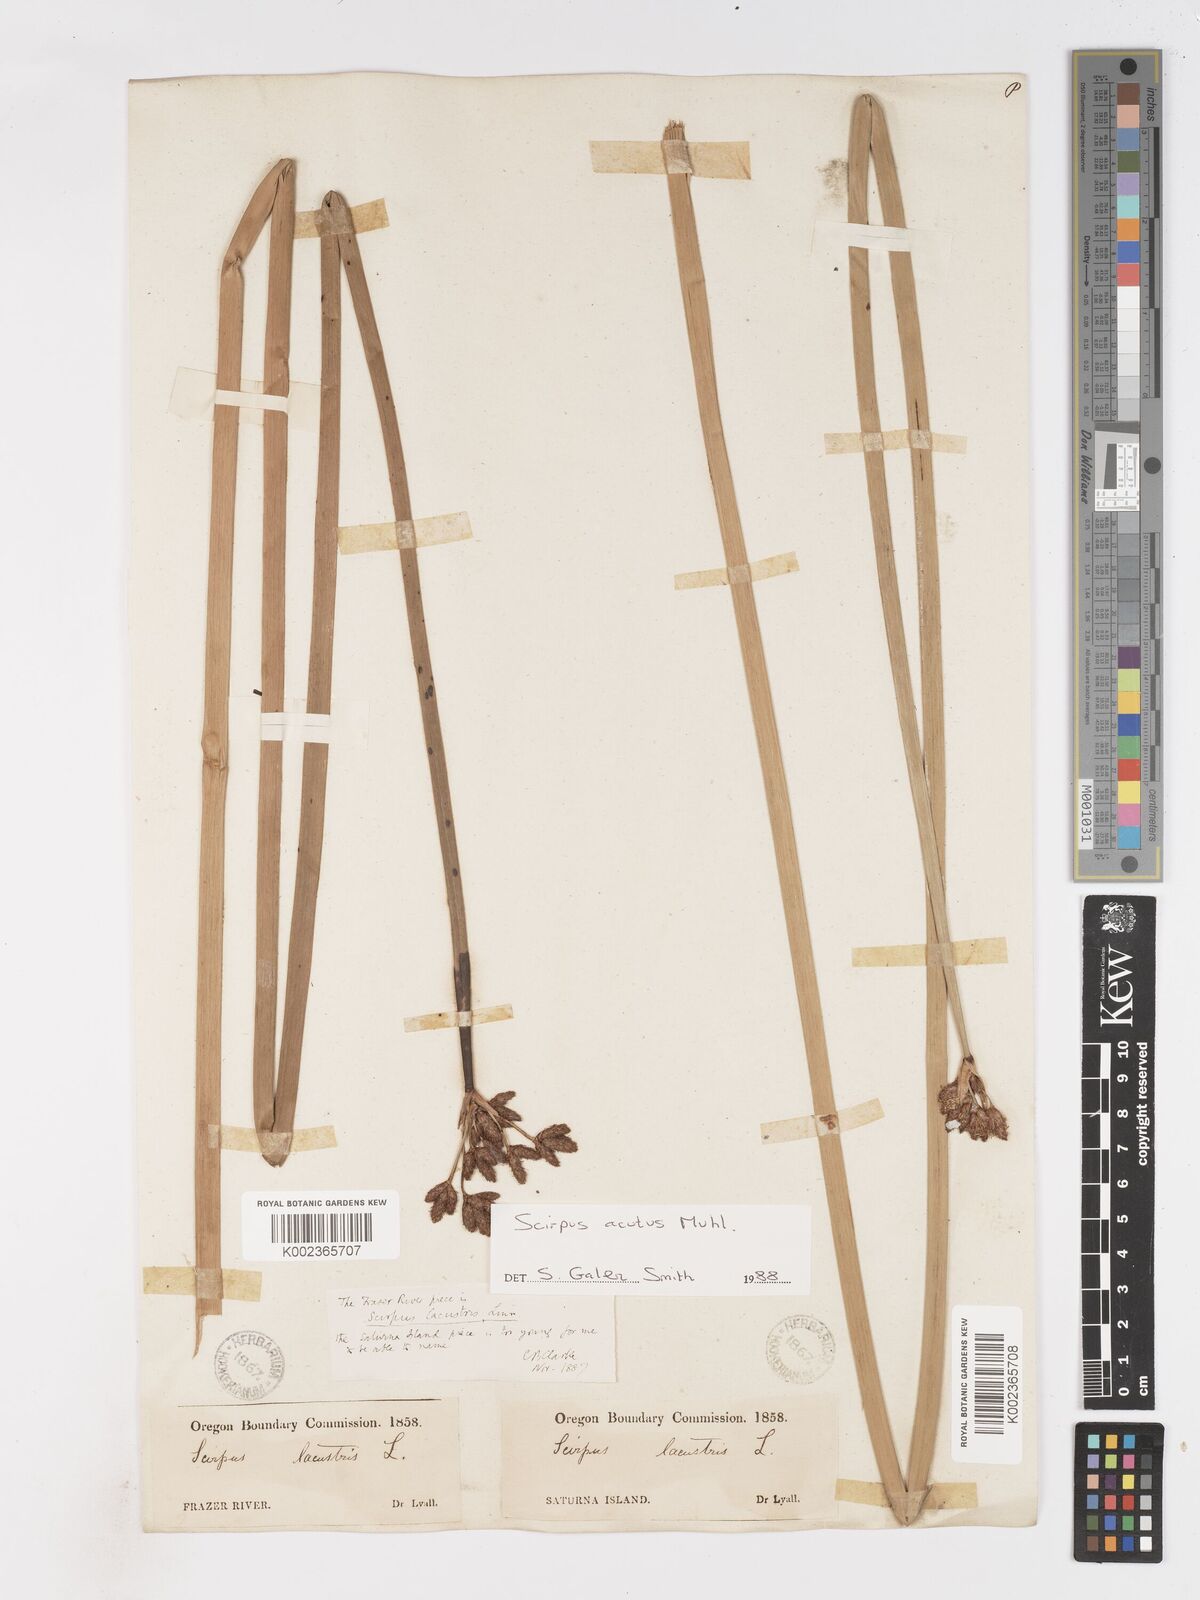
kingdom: Plantae
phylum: Tracheophyta
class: Liliopsida
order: Poales
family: Cyperaceae
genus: Schoenoplectus
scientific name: Schoenoplectus acutus
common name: Hardstem bulrush
